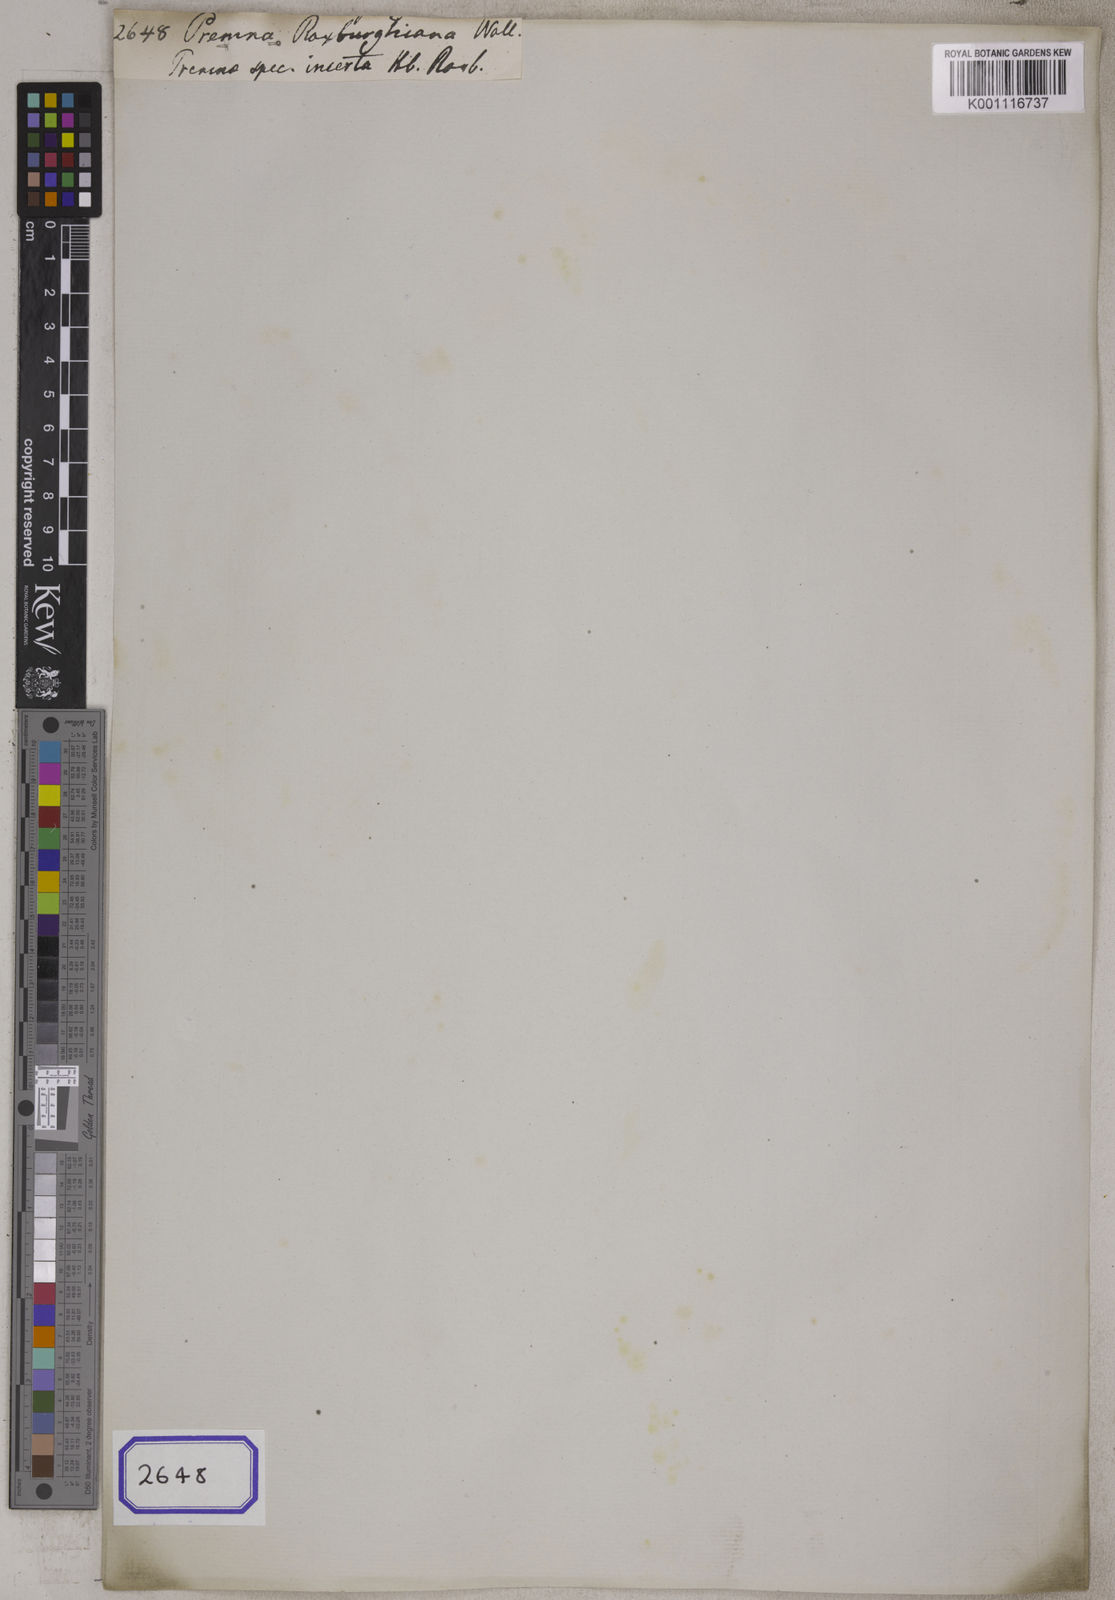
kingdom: Plantae
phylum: Tracheophyta
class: Magnoliopsida
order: Lamiales
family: Lamiaceae
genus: Premna
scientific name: Premna
